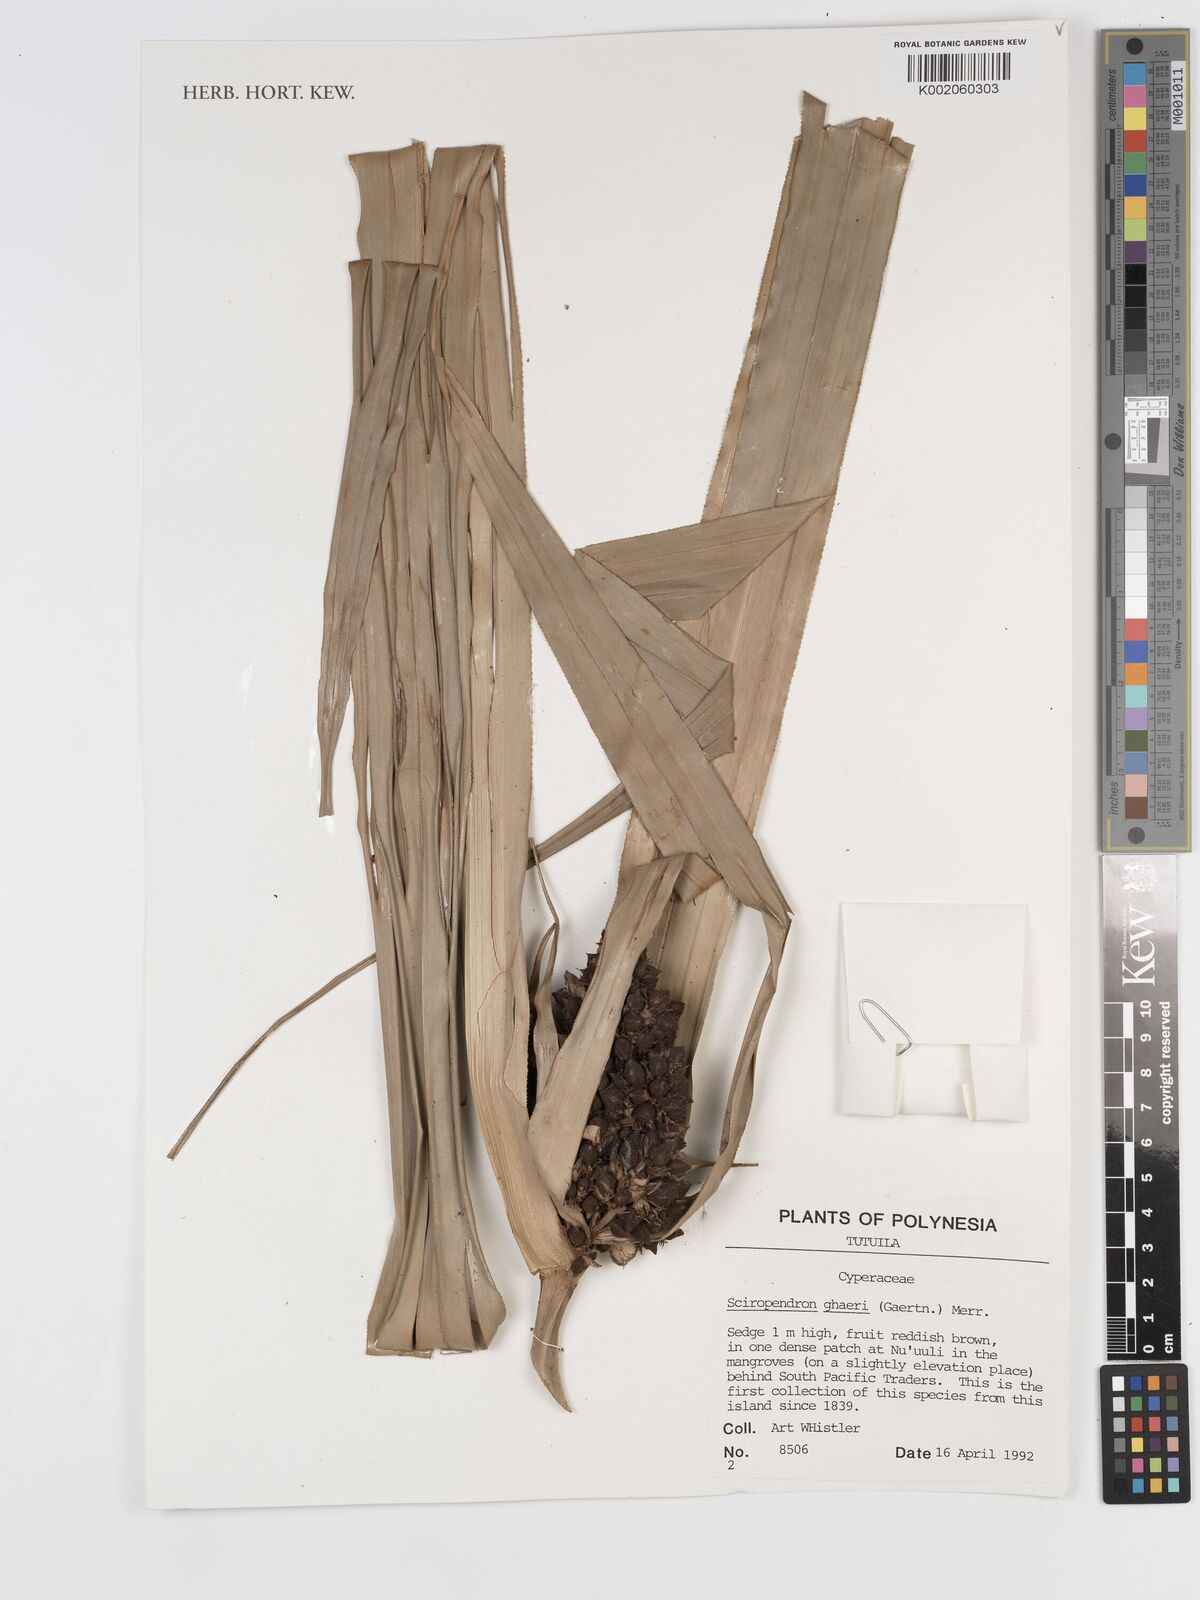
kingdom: Plantae
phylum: Tracheophyta
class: Liliopsida
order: Poales
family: Cyperaceae
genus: Scirpodendron
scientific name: Scirpodendron ghaeri
